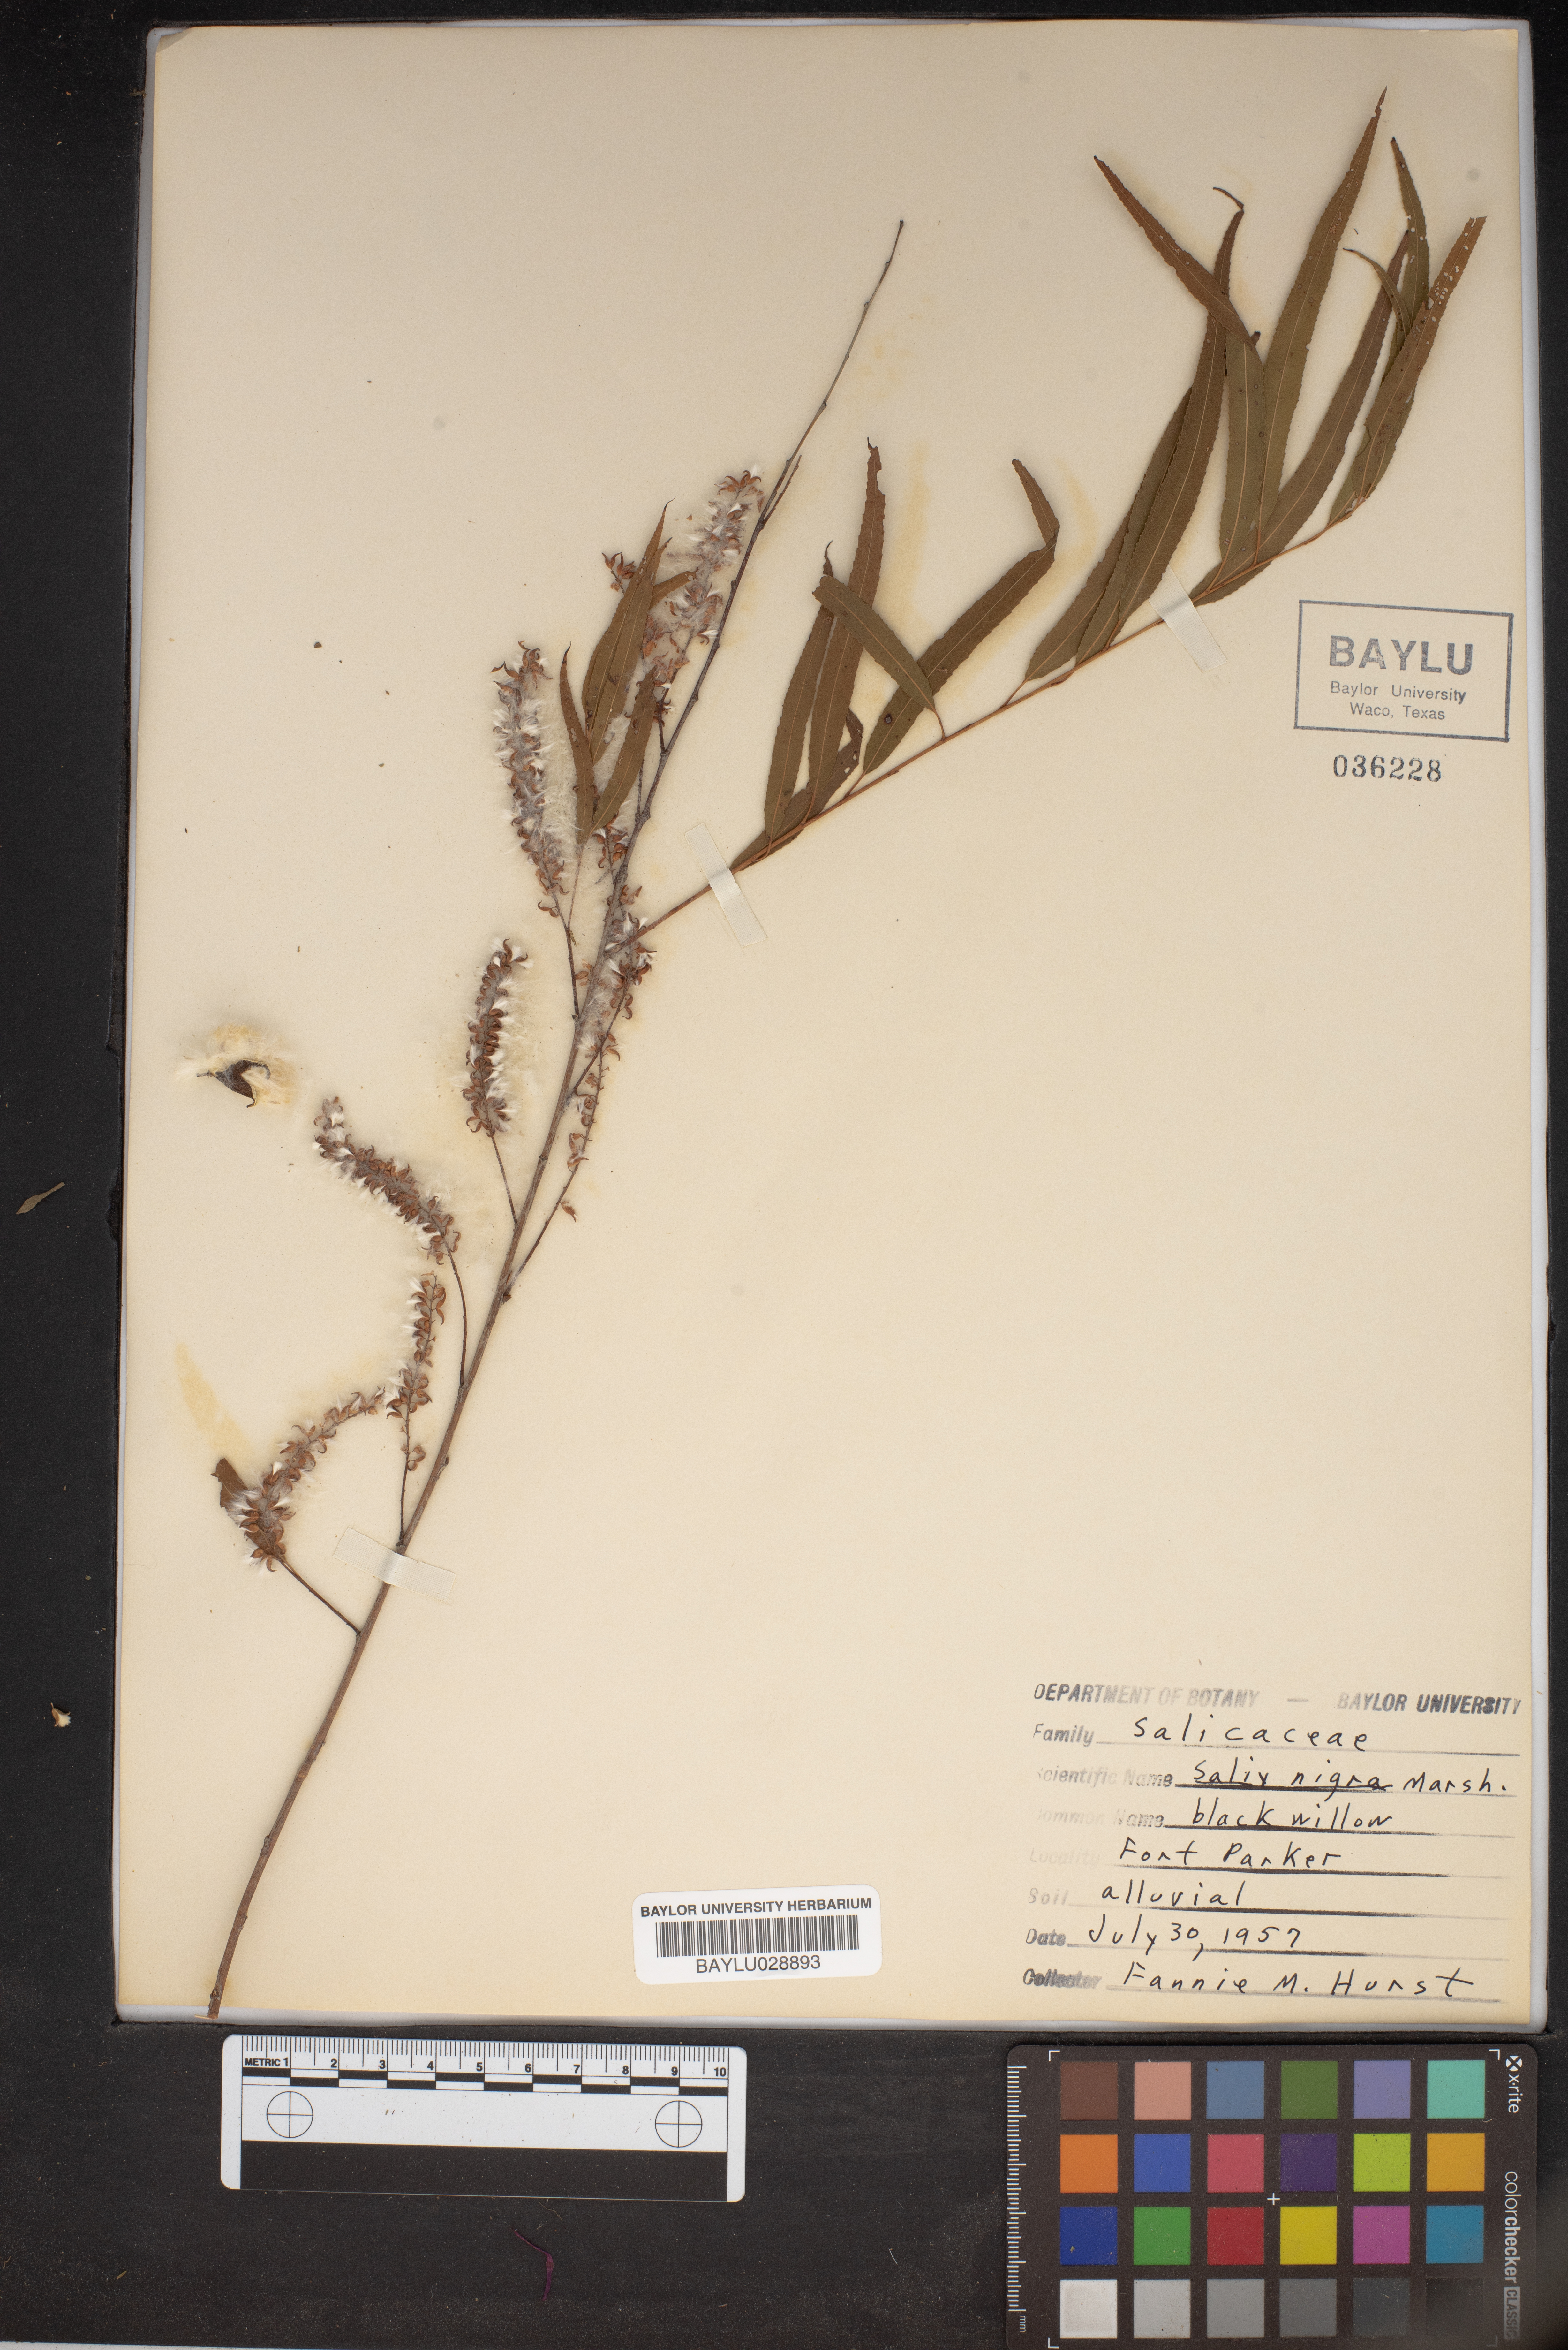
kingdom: Plantae
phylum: Tracheophyta
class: Magnoliopsida
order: Malpighiales
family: Salicaceae
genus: Salix
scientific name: Salix nigra
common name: Black willow
